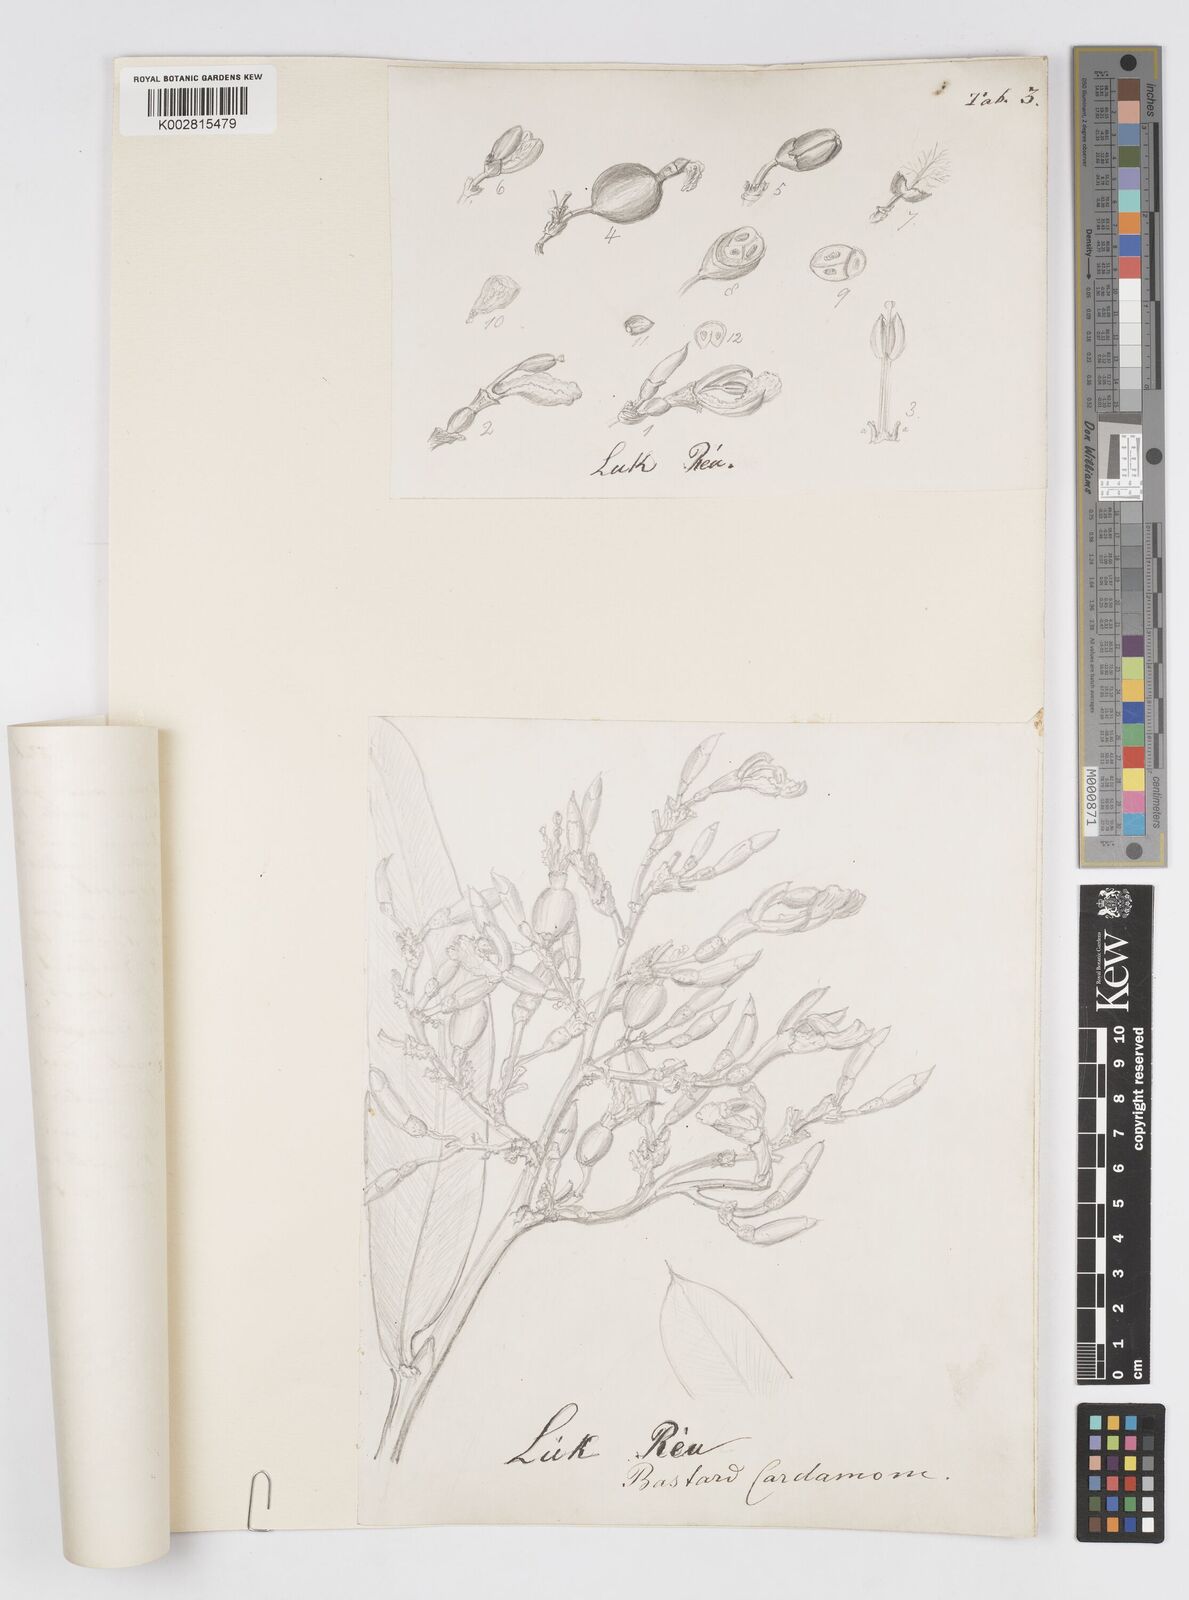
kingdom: Plantae
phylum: Tracheophyta
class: Liliopsida
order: Zingiberales
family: Zingiberaceae
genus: Alpinia
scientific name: Alpinia nigra
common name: Black fruited galanga
